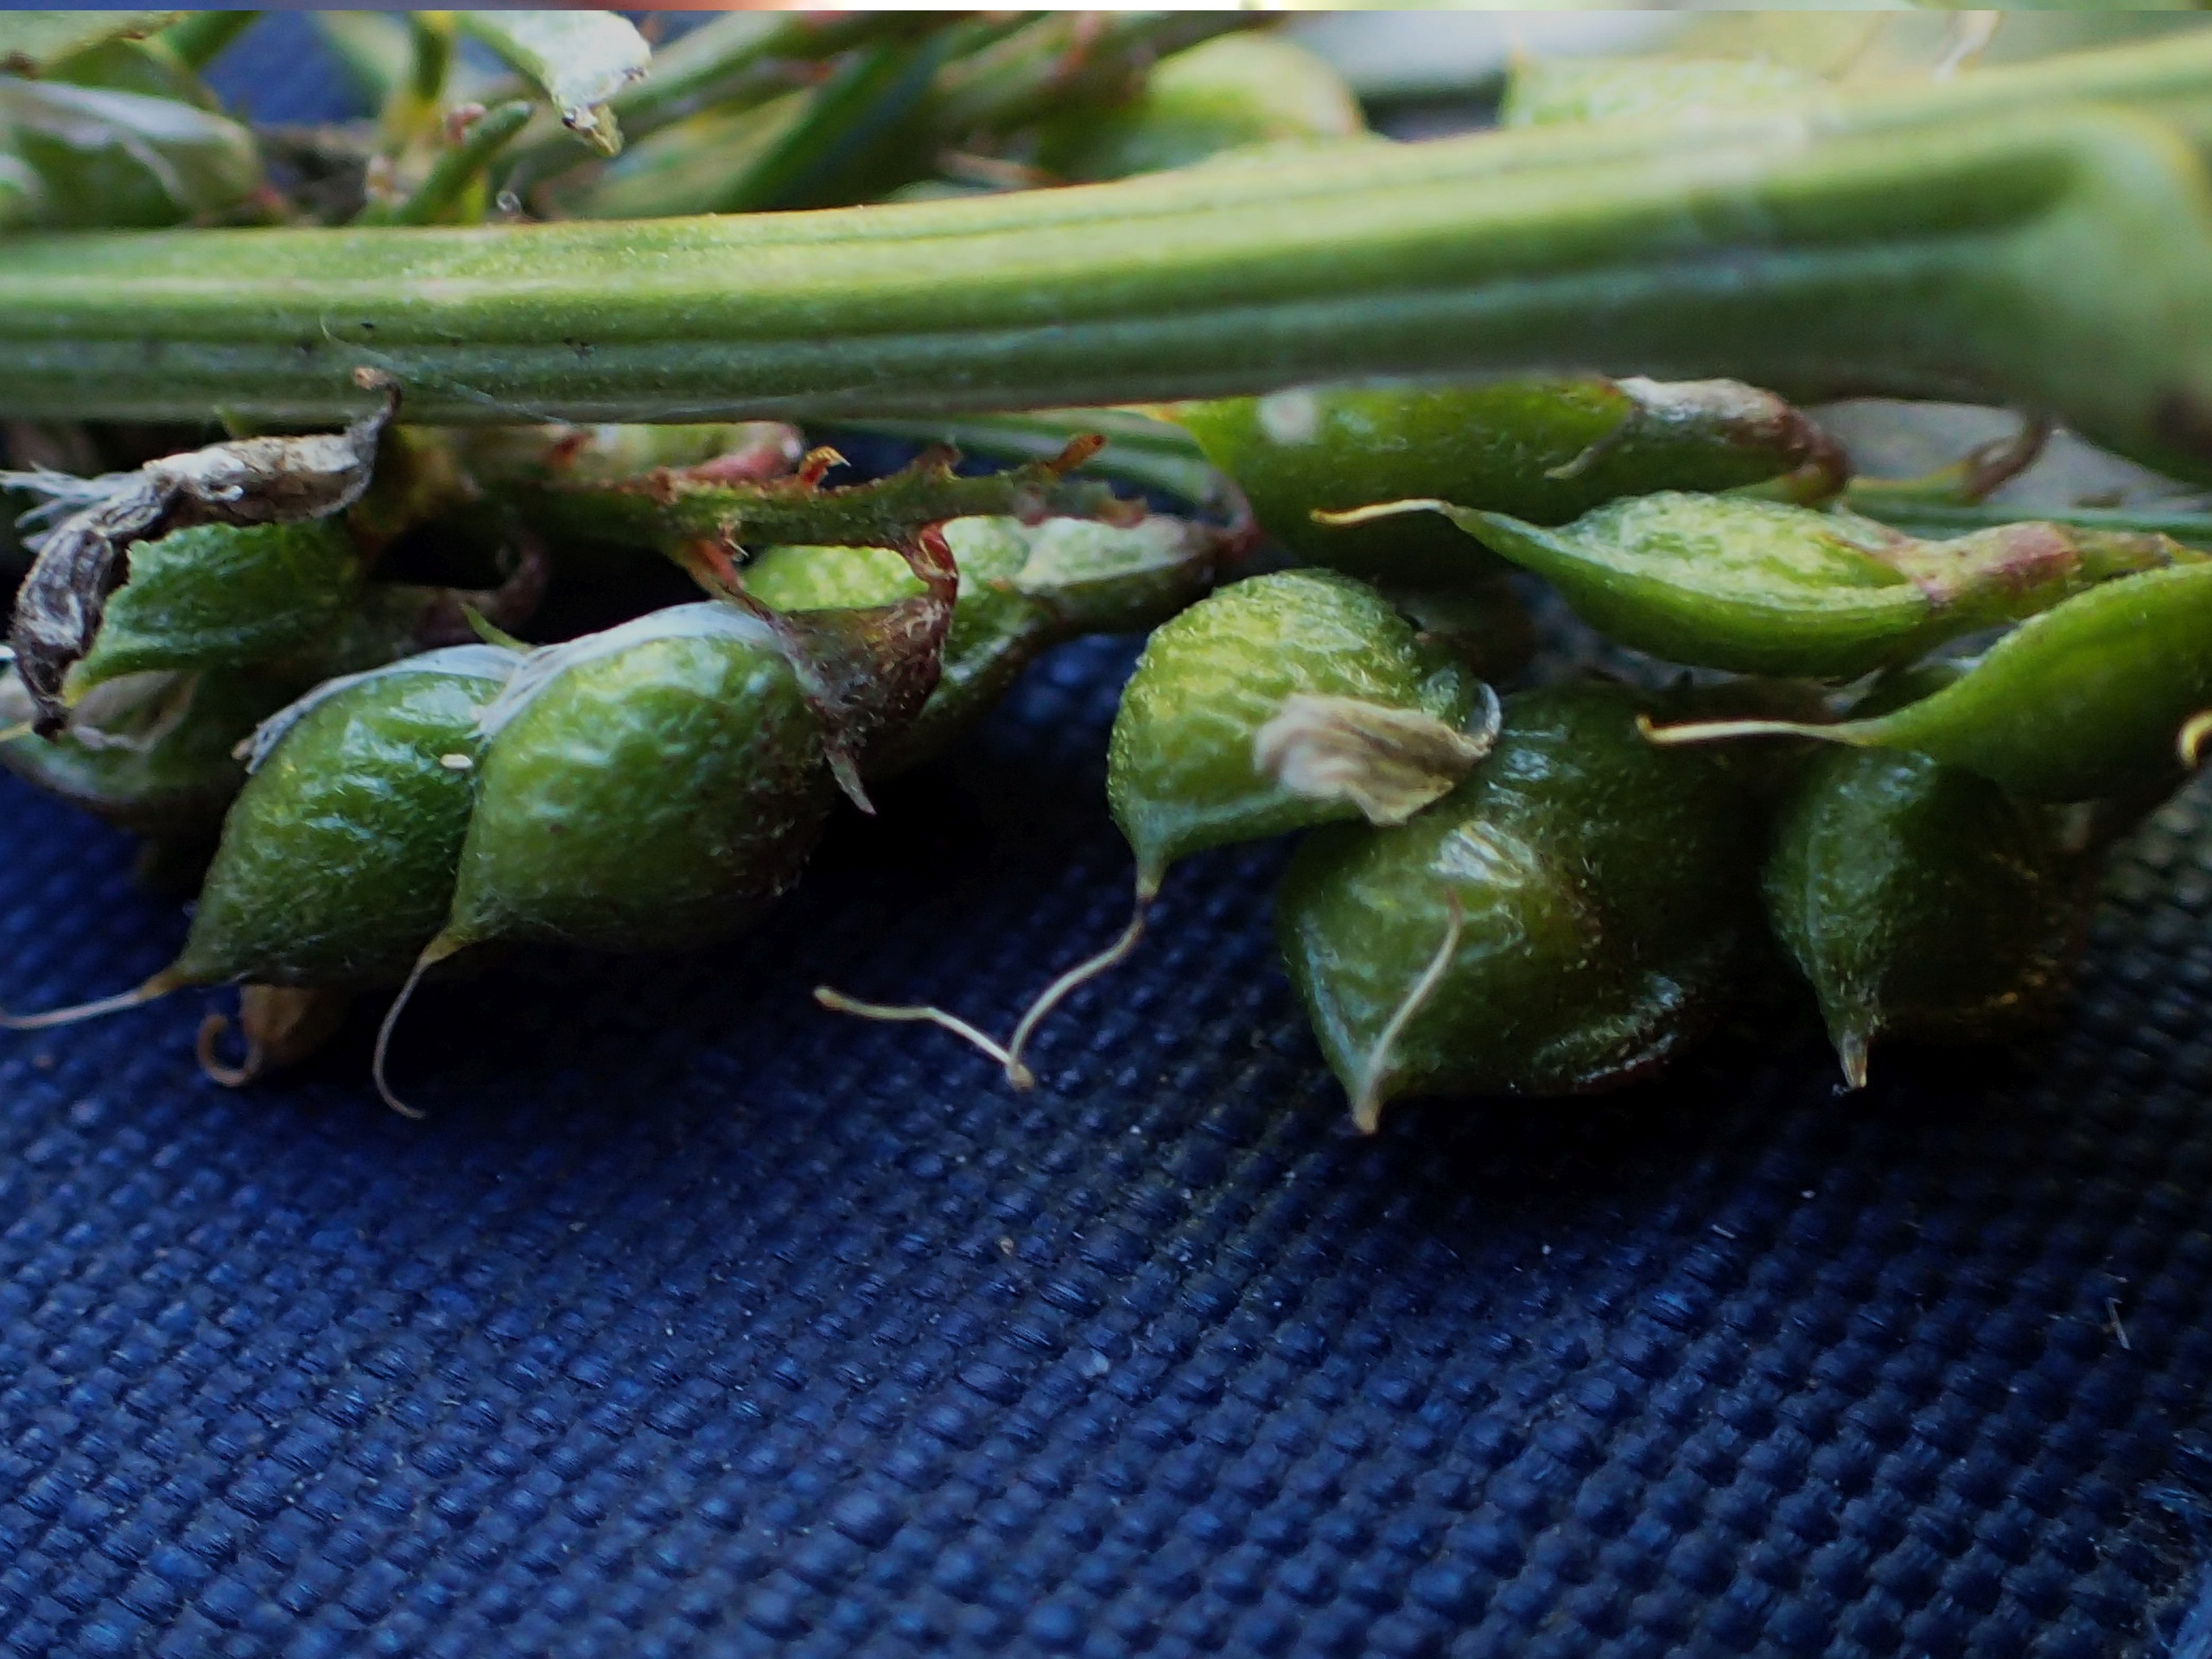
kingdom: Plantae
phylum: Tracheophyta
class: Magnoliopsida
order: Fabales
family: Fabaceae
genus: Melilotus
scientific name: Melilotus officinalis
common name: Mark-stenkløver
